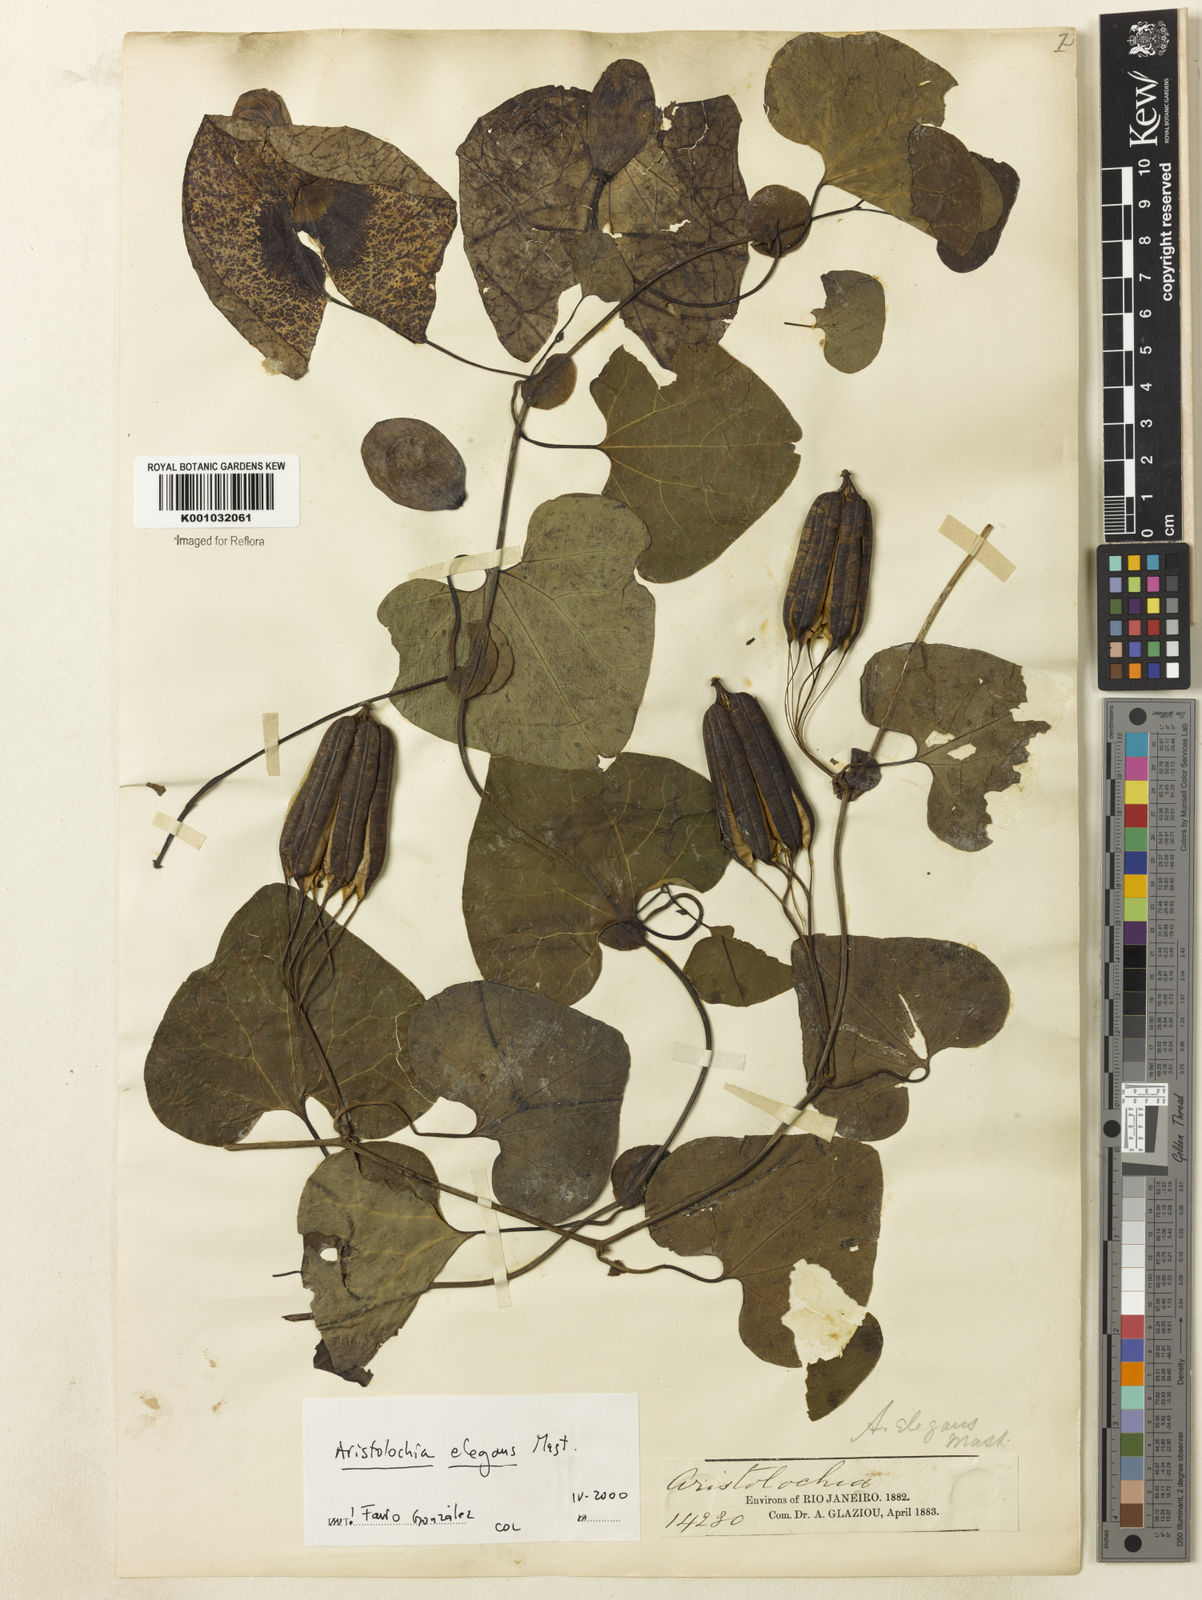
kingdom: Plantae
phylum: Tracheophyta
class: Magnoliopsida
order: Piperales
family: Aristolochiaceae
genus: Aristolochia
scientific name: Aristolochia littoralis
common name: Duck
